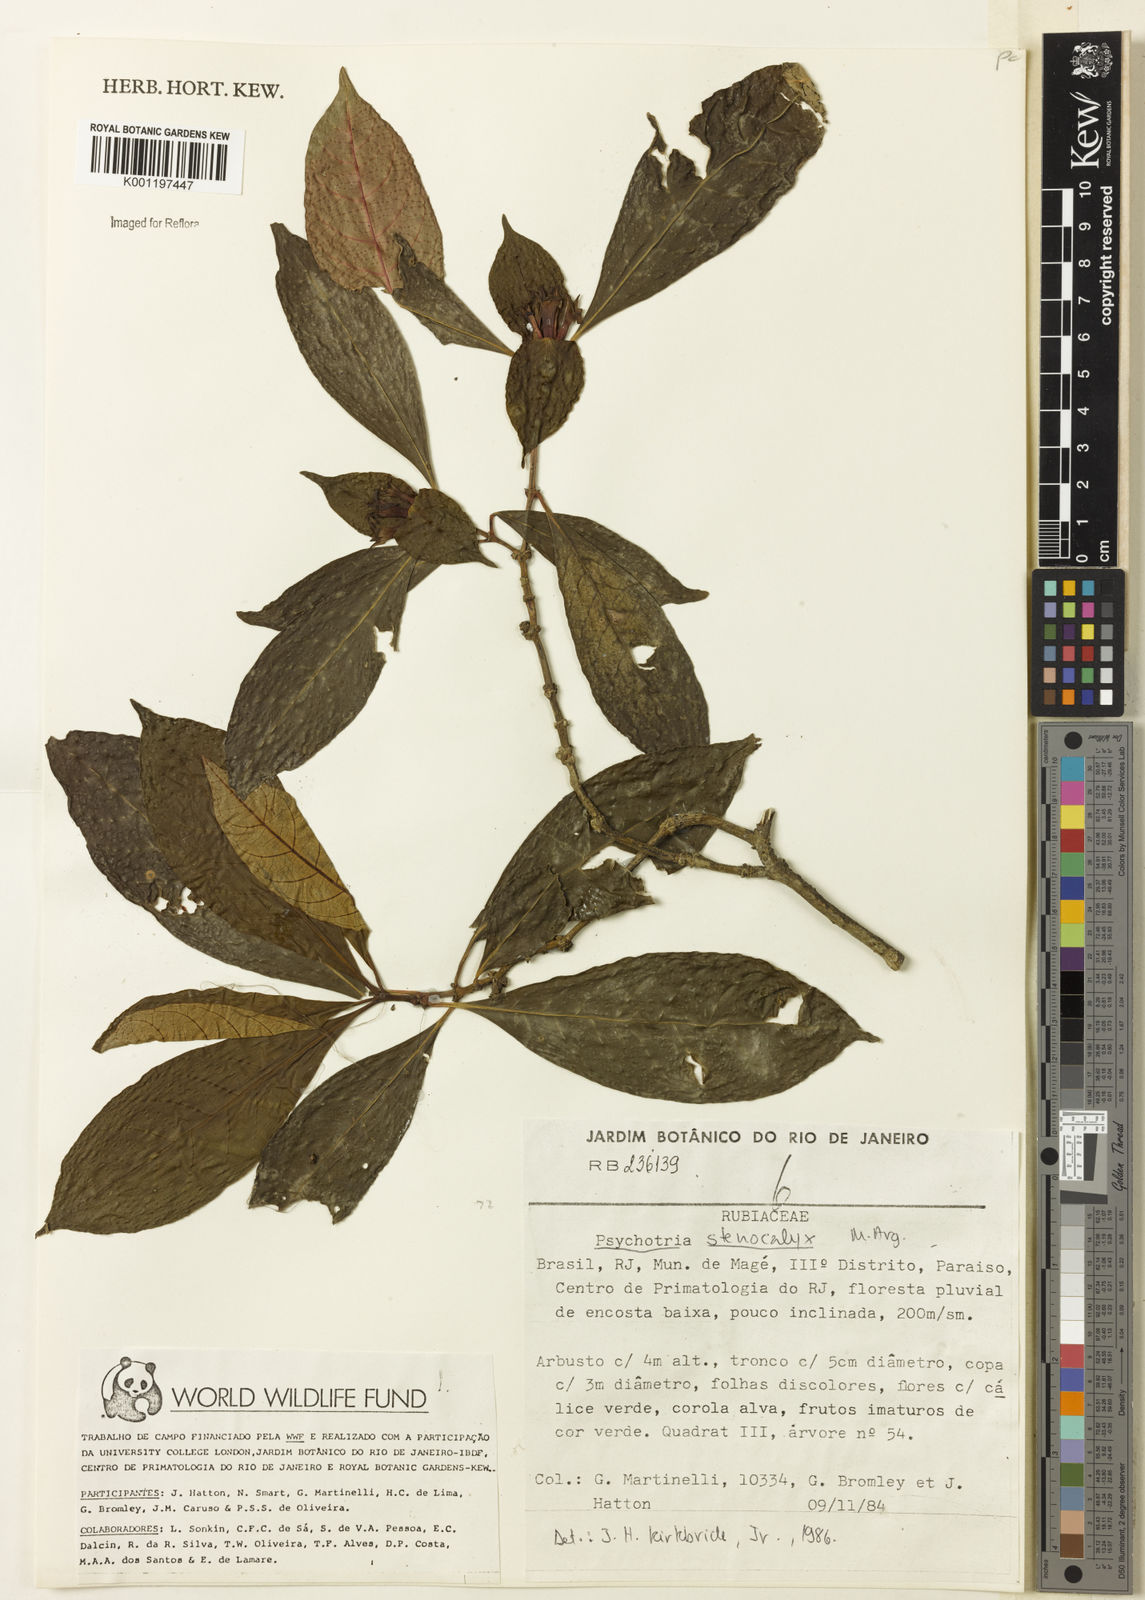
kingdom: Plantae
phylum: Tracheophyta
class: Magnoliopsida
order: Gentianales
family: Rubiaceae
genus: Psychotria
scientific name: Psychotria
